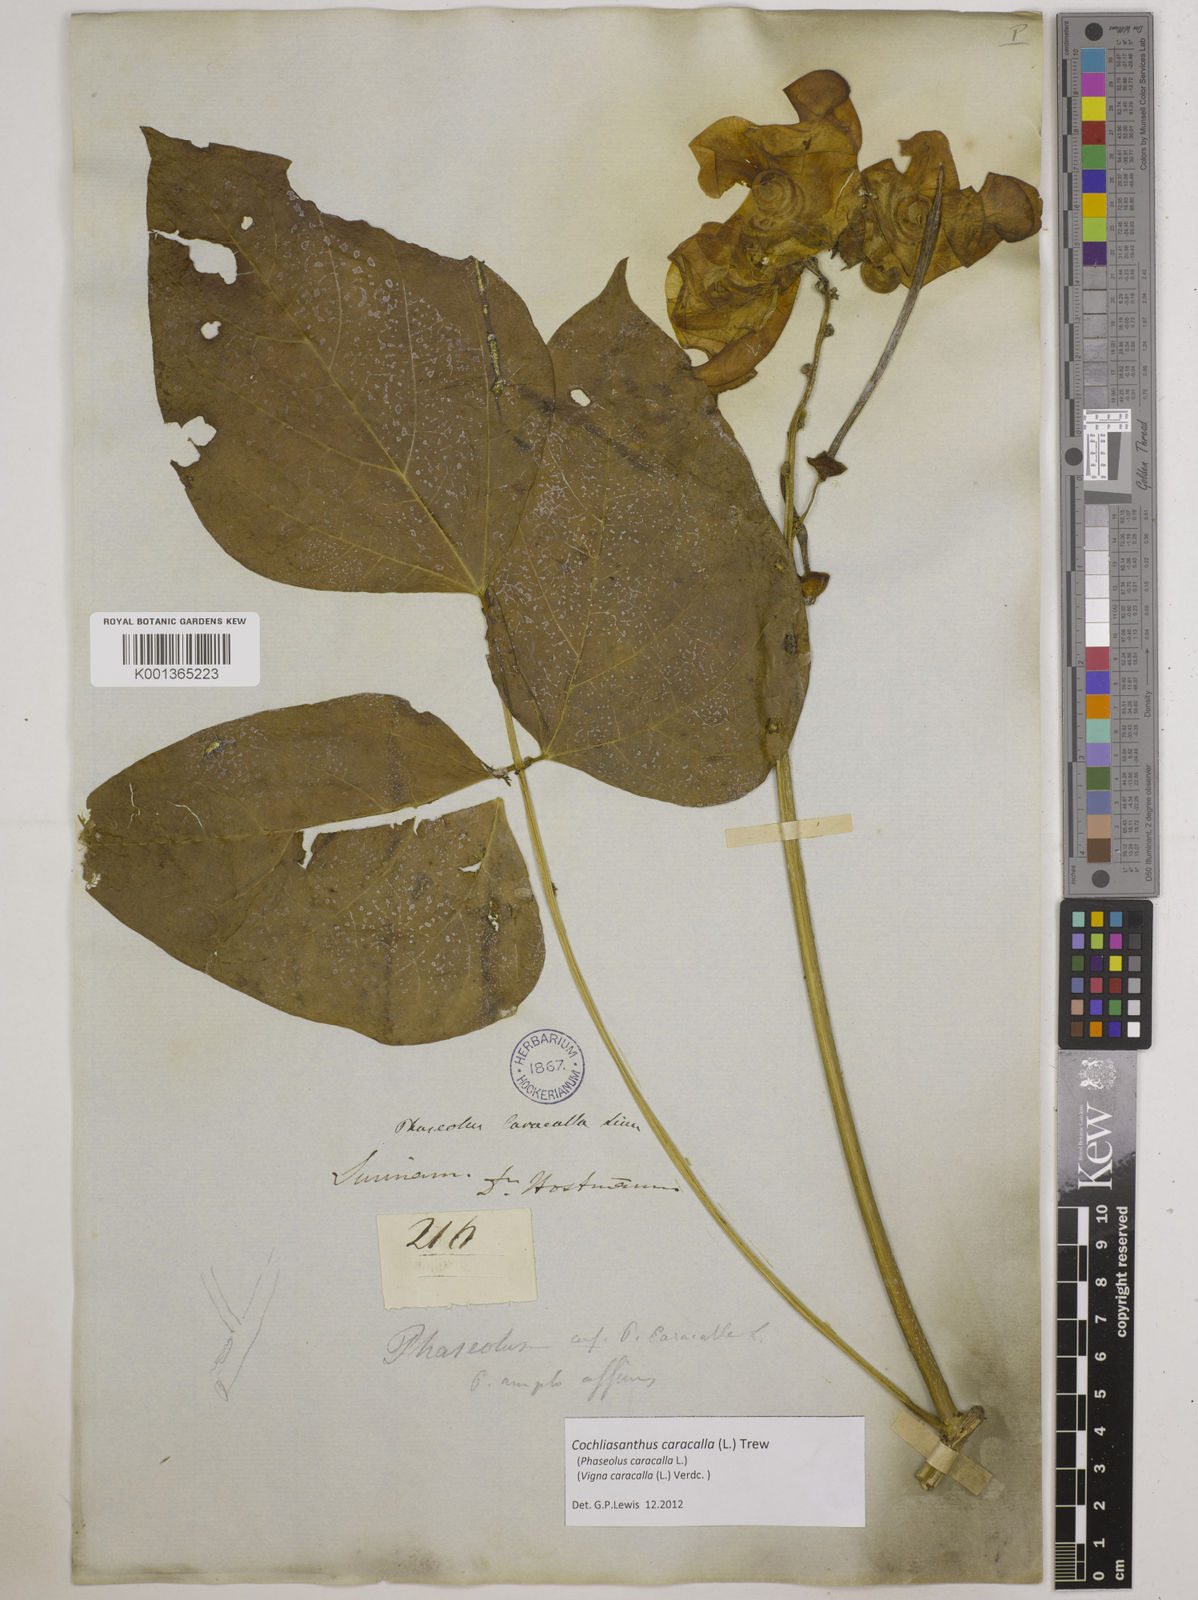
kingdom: Plantae
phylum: Tracheophyta
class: Magnoliopsida
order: Fabales
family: Fabaceae
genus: Cochliasanthus
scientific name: Cochliasanthus caracalla
